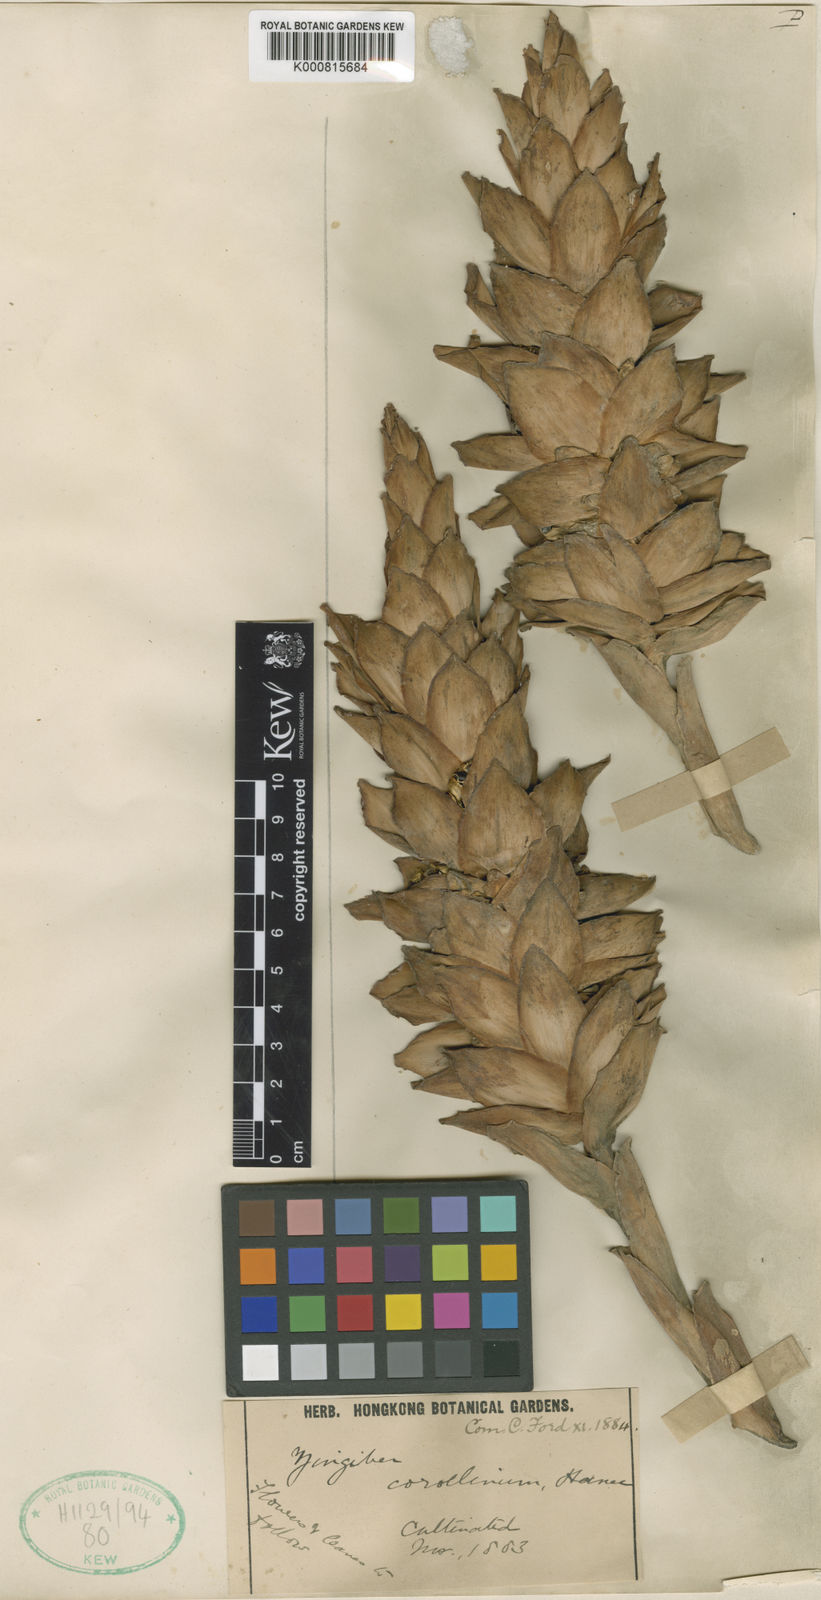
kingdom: Plantae
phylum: Tracheophyta
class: Liliopsida
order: Zingiberales
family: Zingiberaceae
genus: Zingiber
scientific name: Zingiber corallinum
